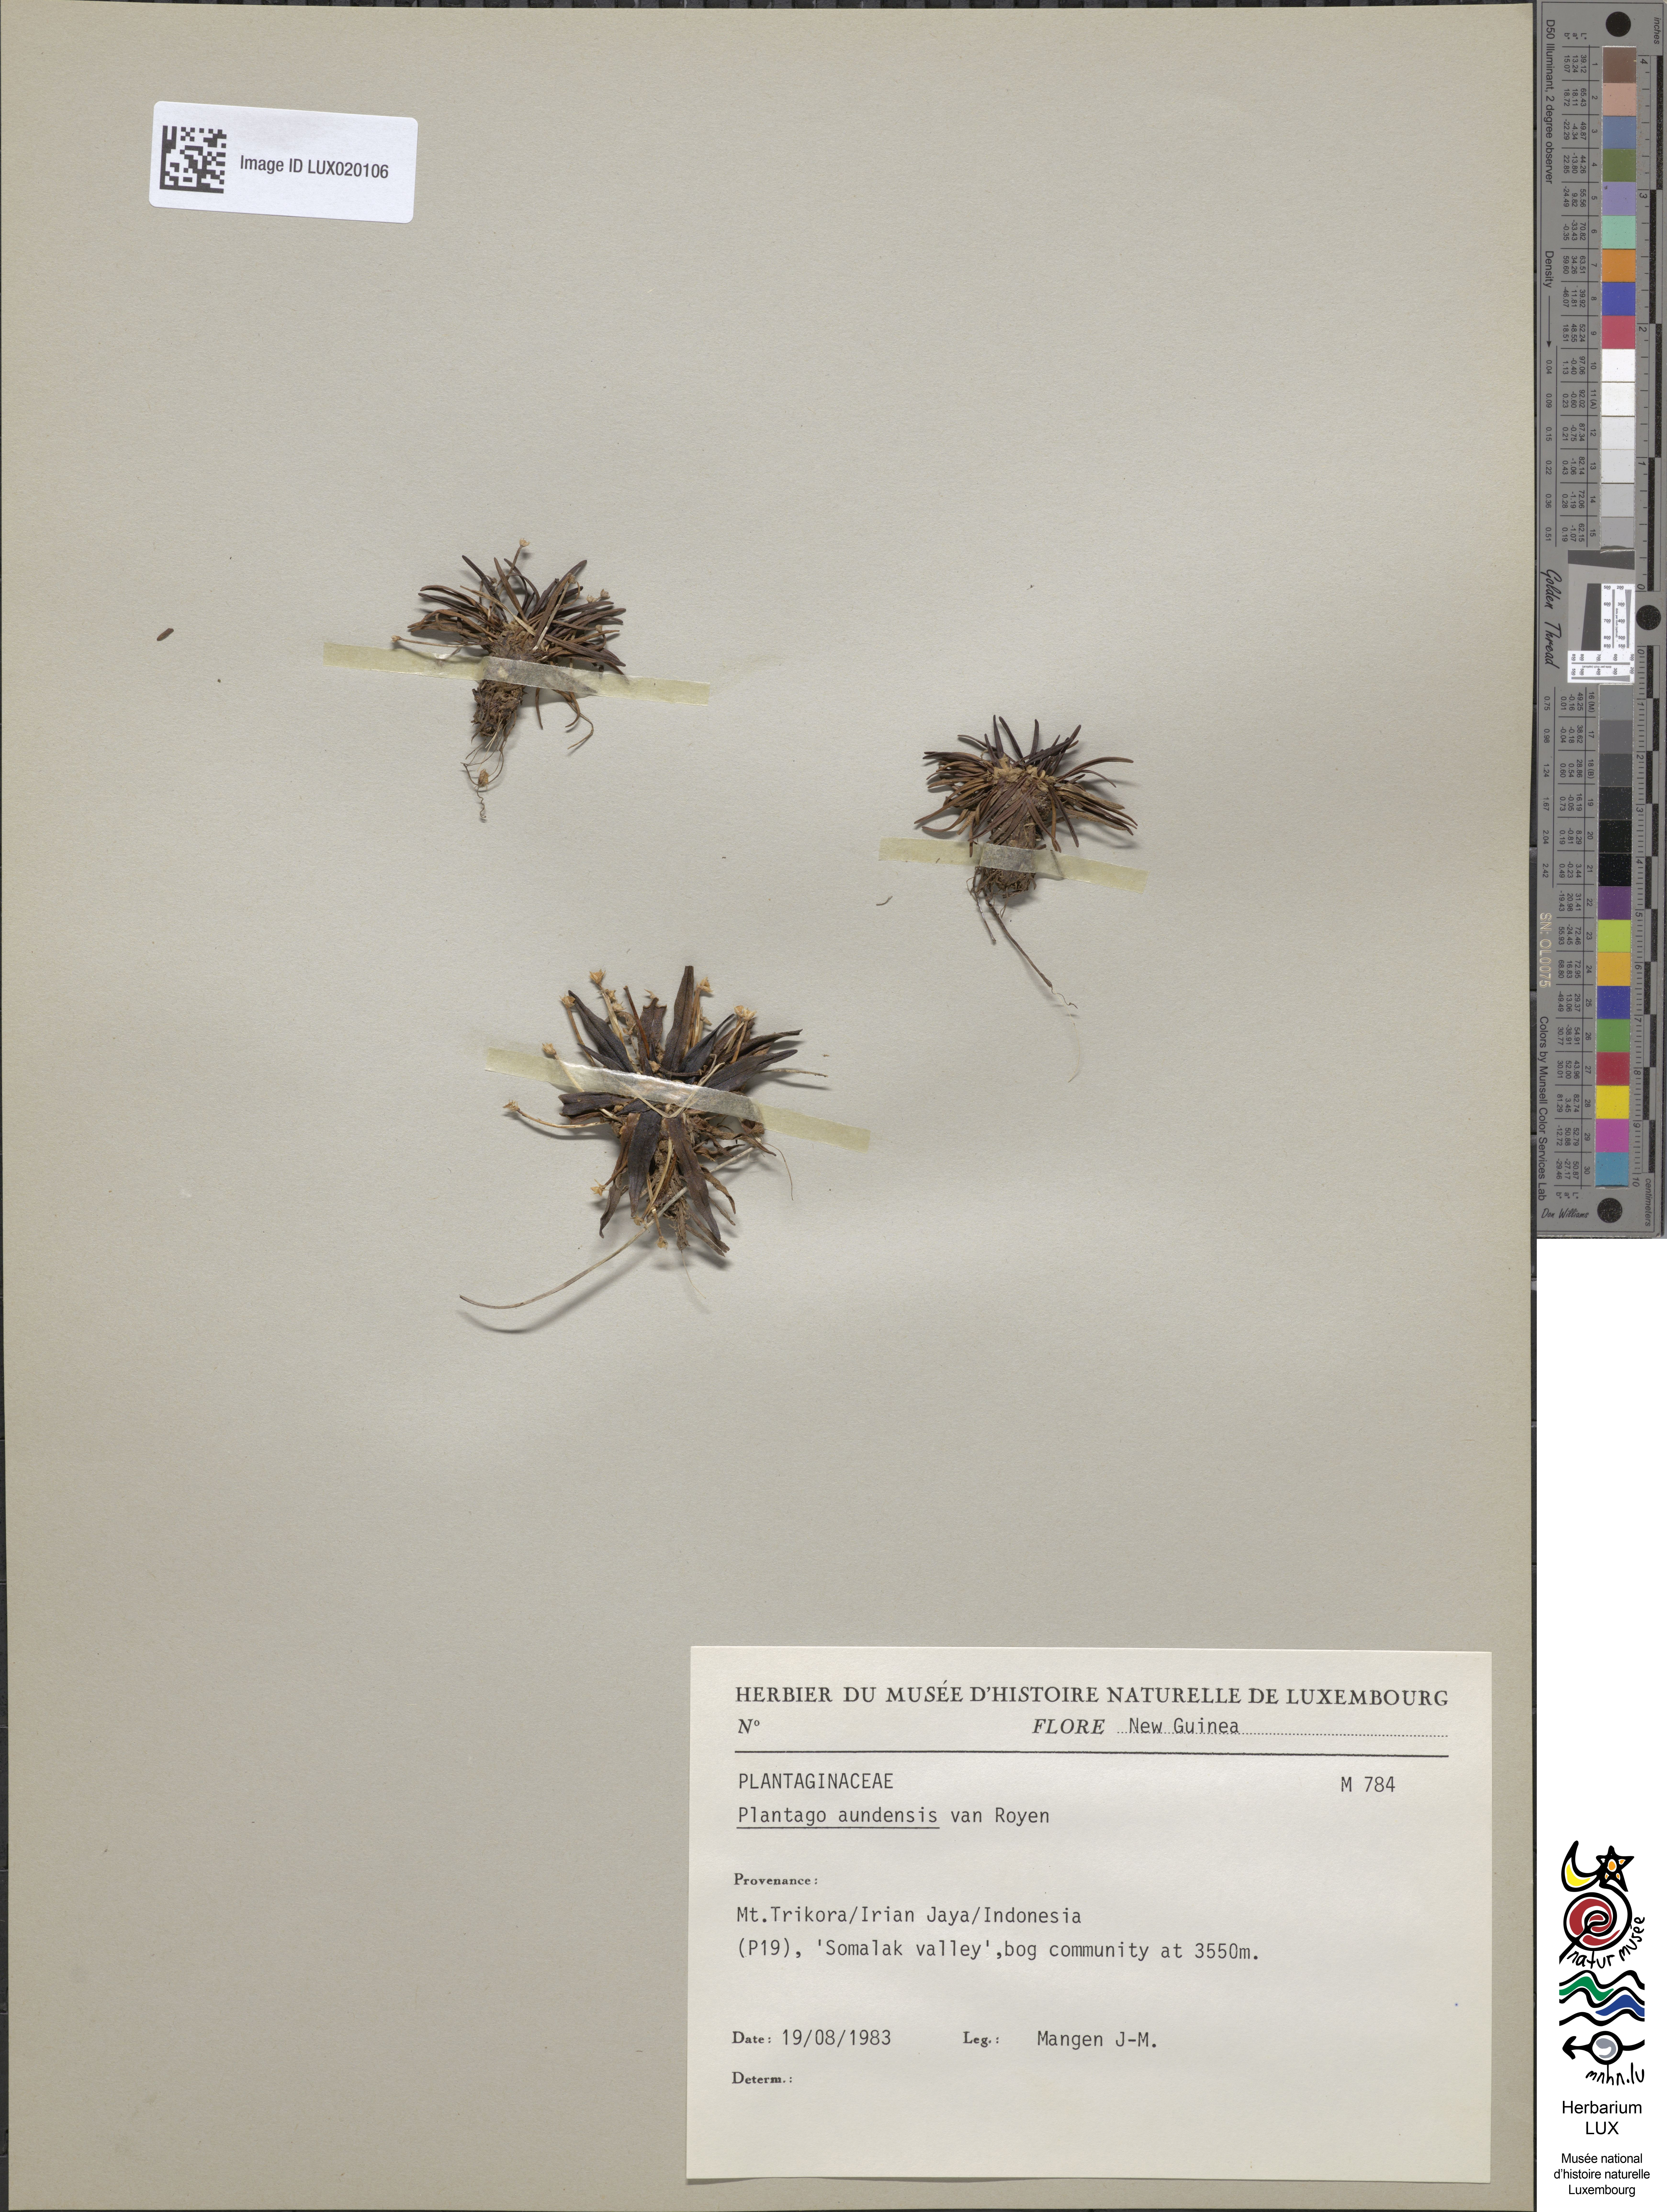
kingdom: Plantae
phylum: Tracheophyta
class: Magnoliopsida
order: Lamiales
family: Plantaginaceae
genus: Plantago
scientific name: Plantago aundensis
